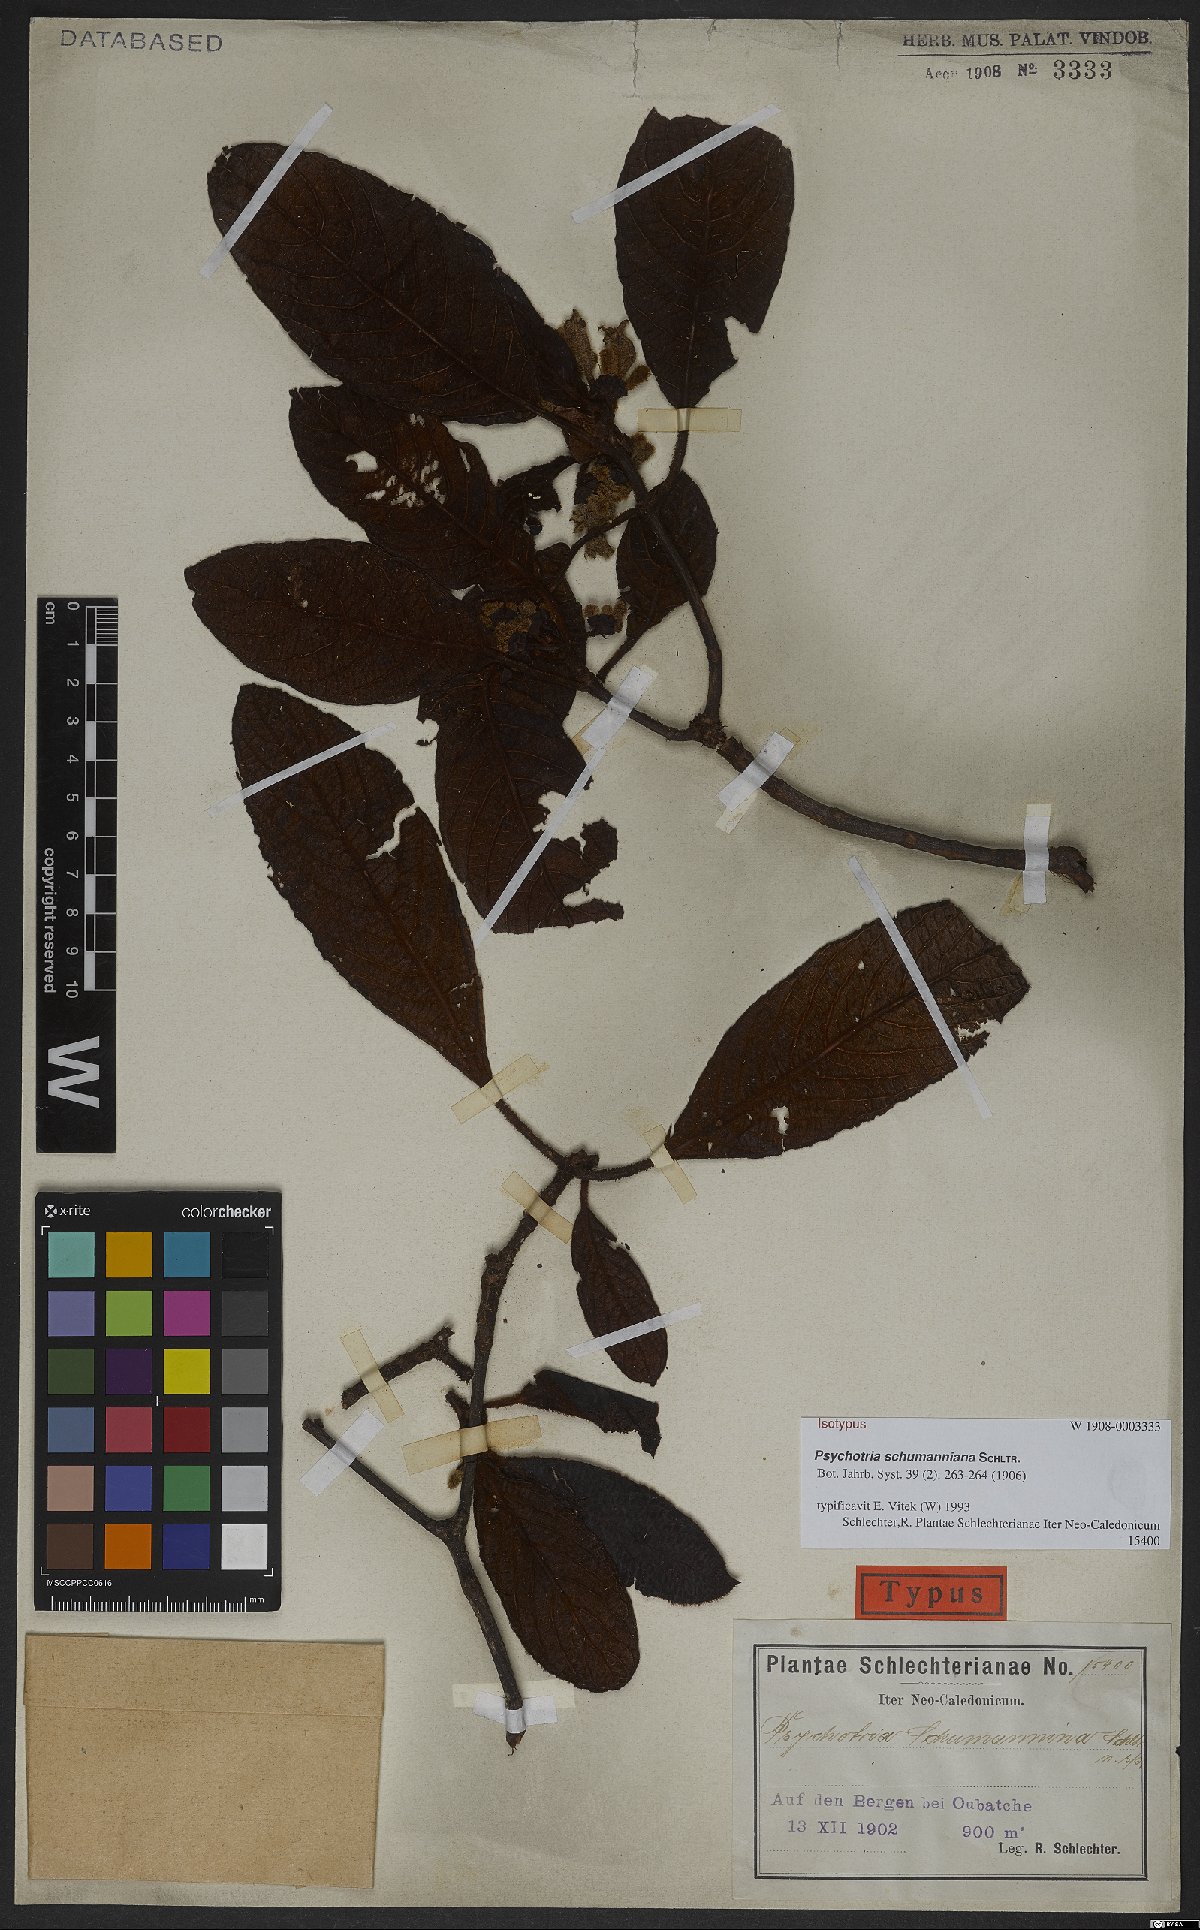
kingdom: Plantae
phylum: Tracheophyta
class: Magnoliopsida
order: Gentianales
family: Rubiaceae
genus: Psychotria
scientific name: Psychotria schumanniana
